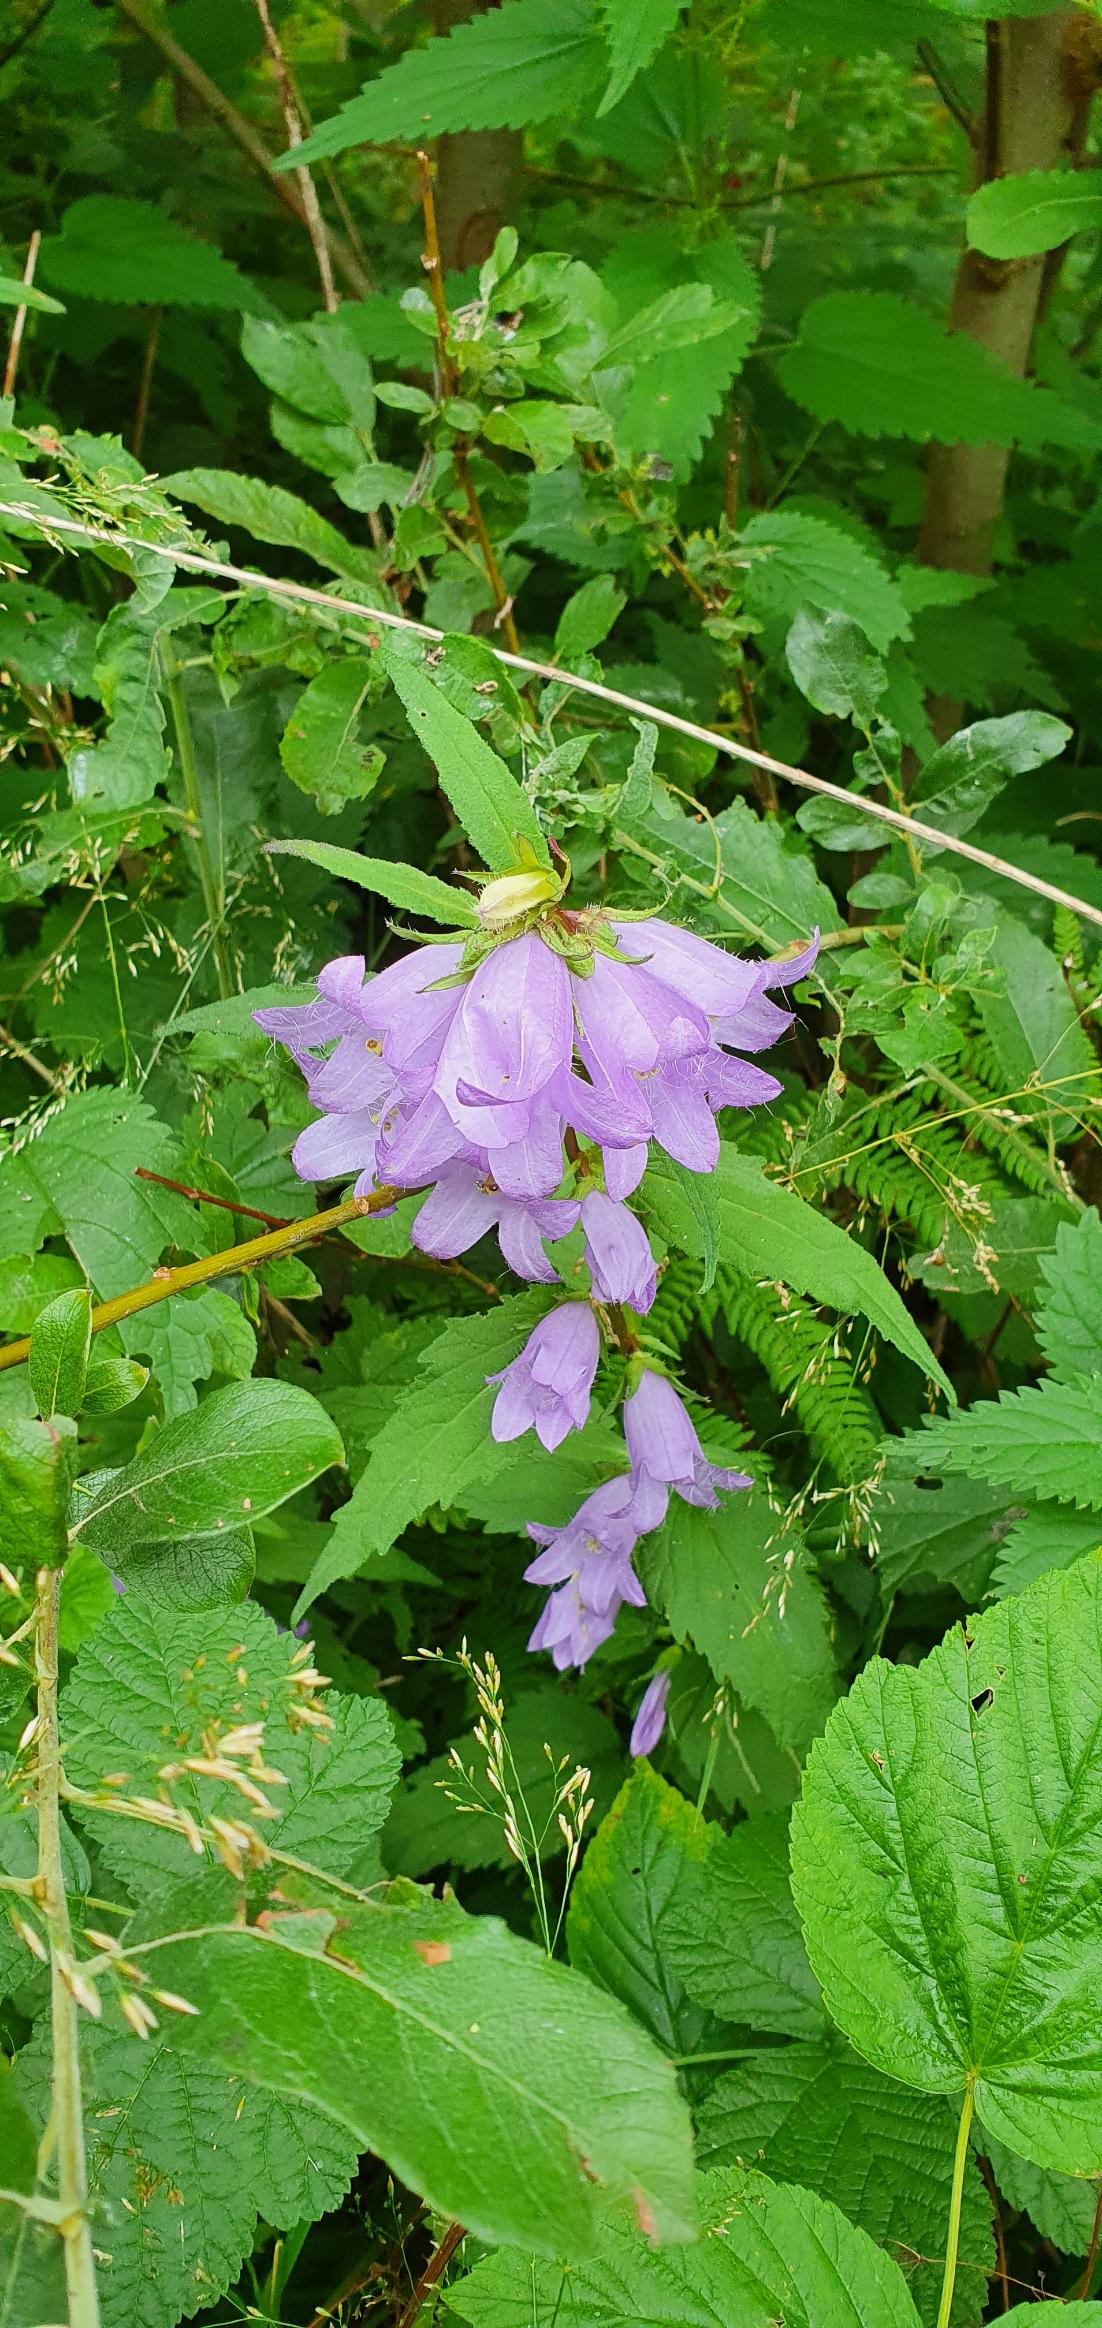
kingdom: Plantae
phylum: Tracheophyta
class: Magnoliopsida
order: Asterales
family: Campanulaceae
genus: Campanula
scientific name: Campanula trachelium
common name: Nælde-klokke
